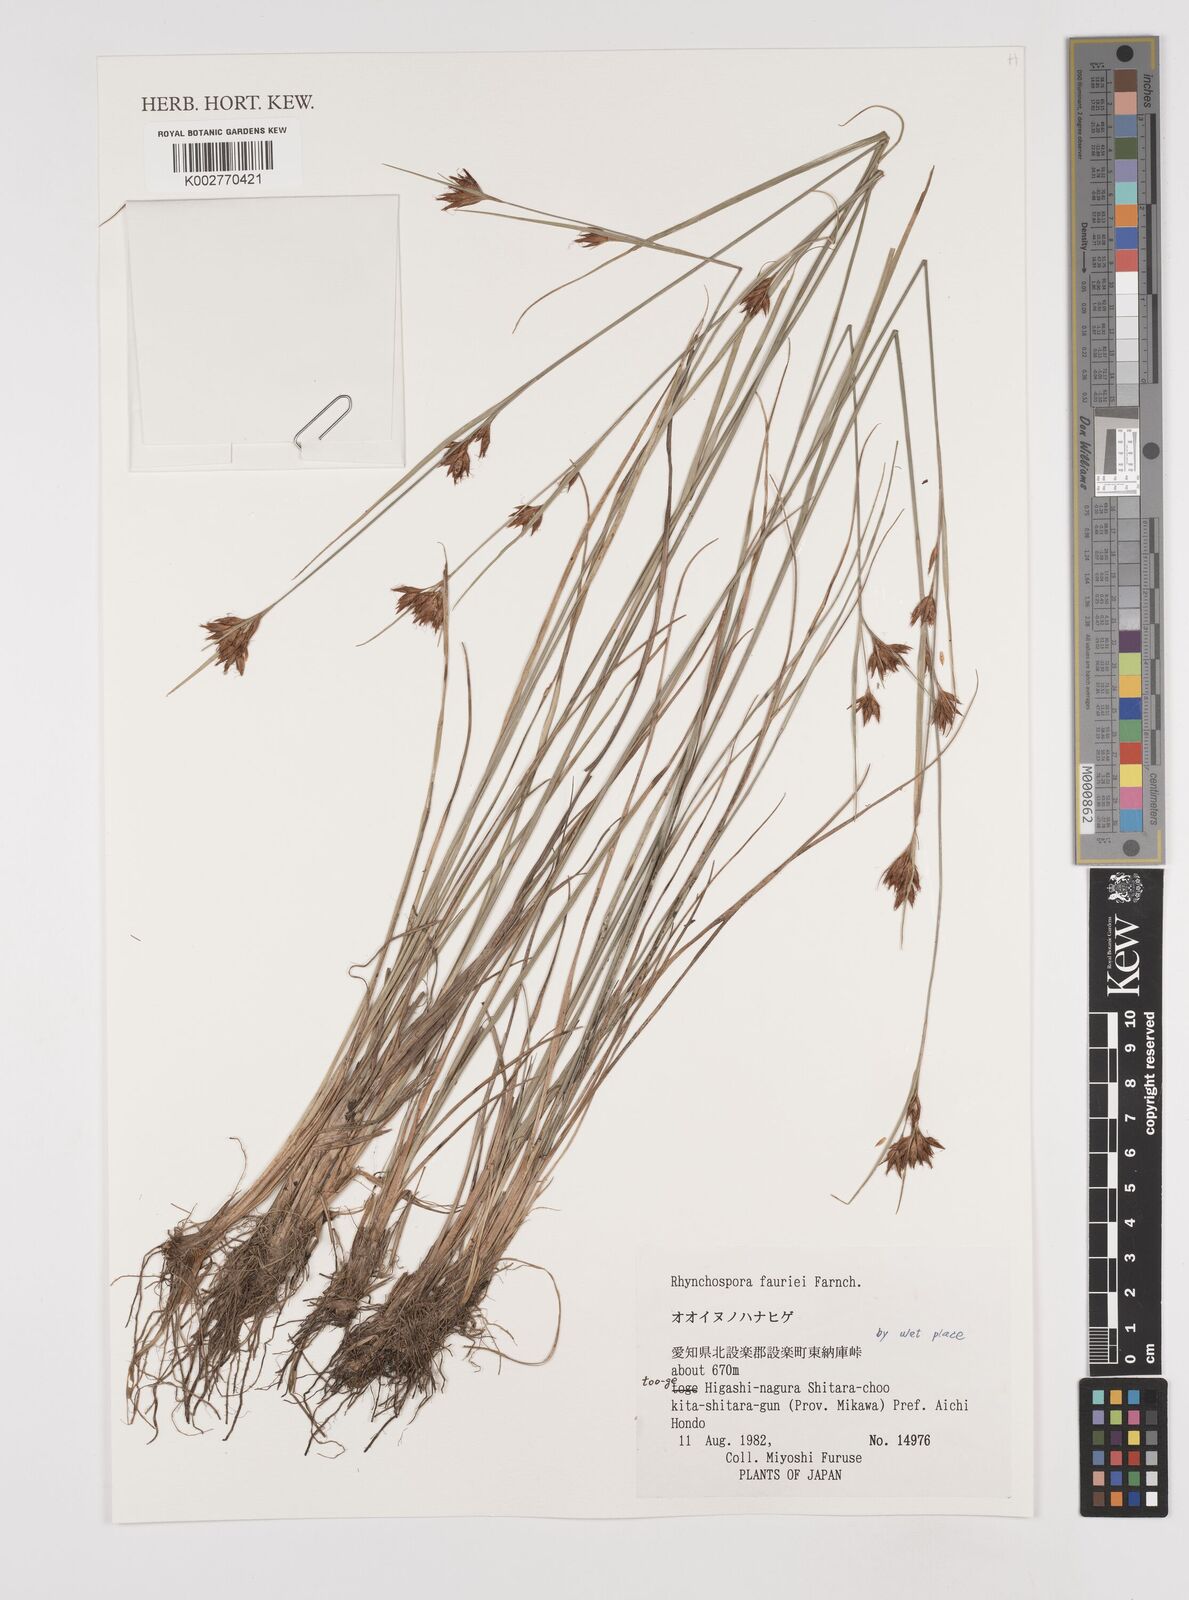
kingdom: Plantae
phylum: Tracheophyta
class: Liliopsida
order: Poales
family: Cyperaceae
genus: Rhynchospora
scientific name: Rhynchospora fauriei
